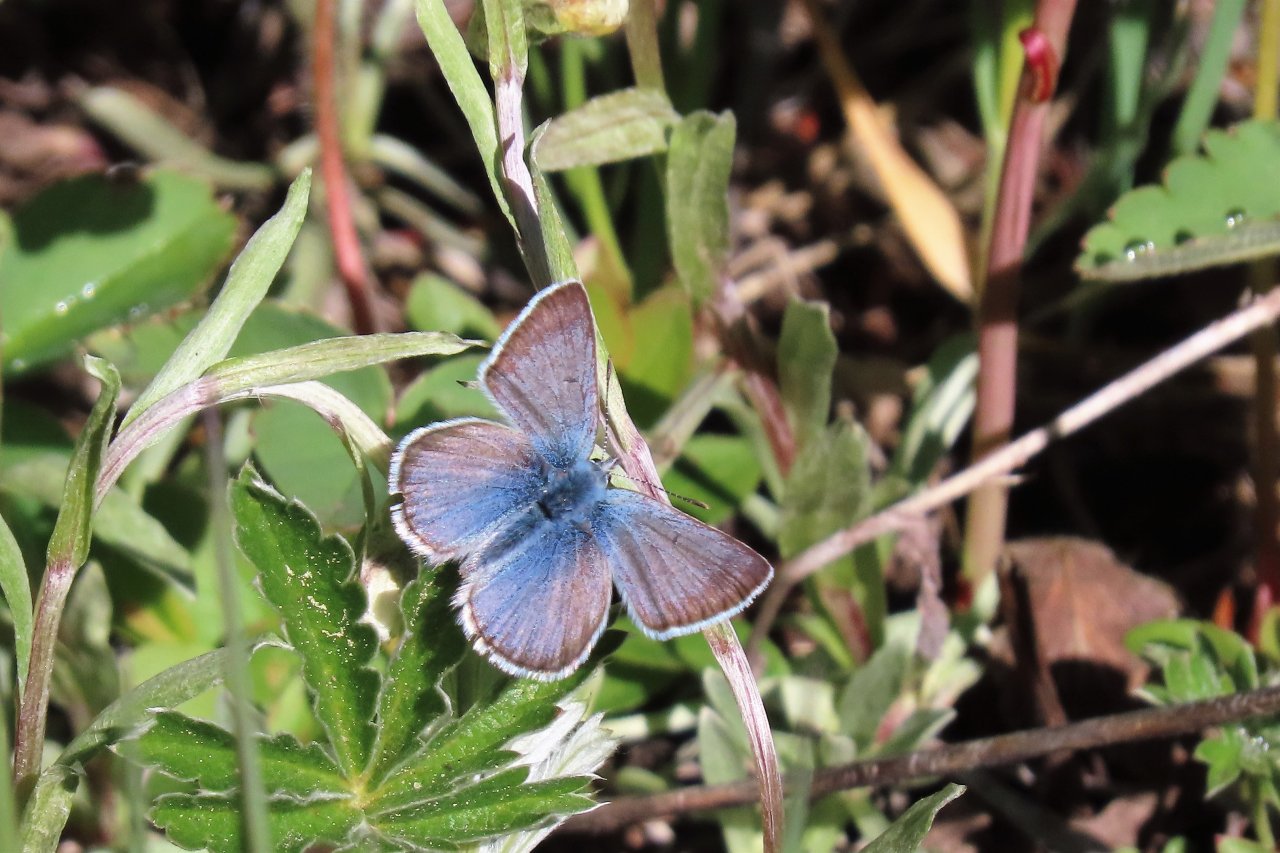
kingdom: Animalia
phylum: Arthropoda
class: Insecta
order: Lepidoptera
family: Lycaenidae
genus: Plebejus
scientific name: Plebejus saepiolus
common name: Greenish Blue
